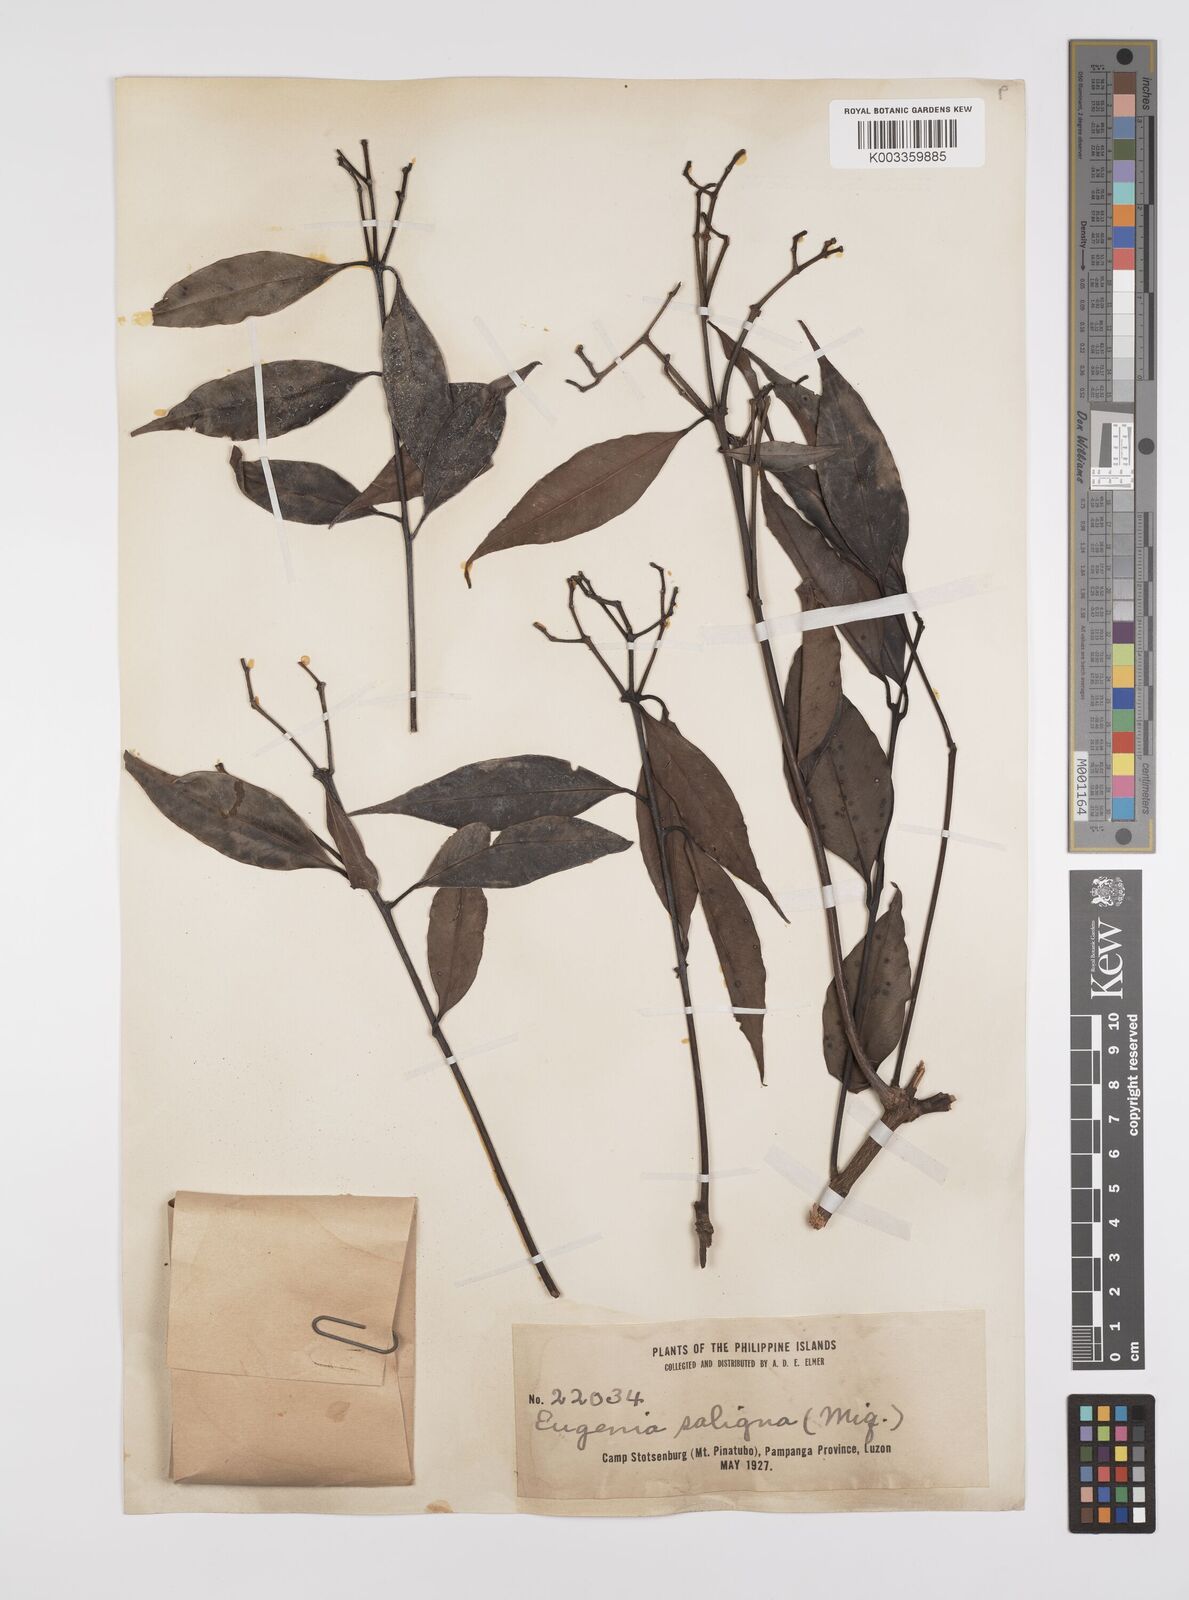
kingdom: Plantae
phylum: Tracheophyta
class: Magnoliopsida
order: Myrtales
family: Myrtaceae
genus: Syzygium
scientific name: Syzygium
